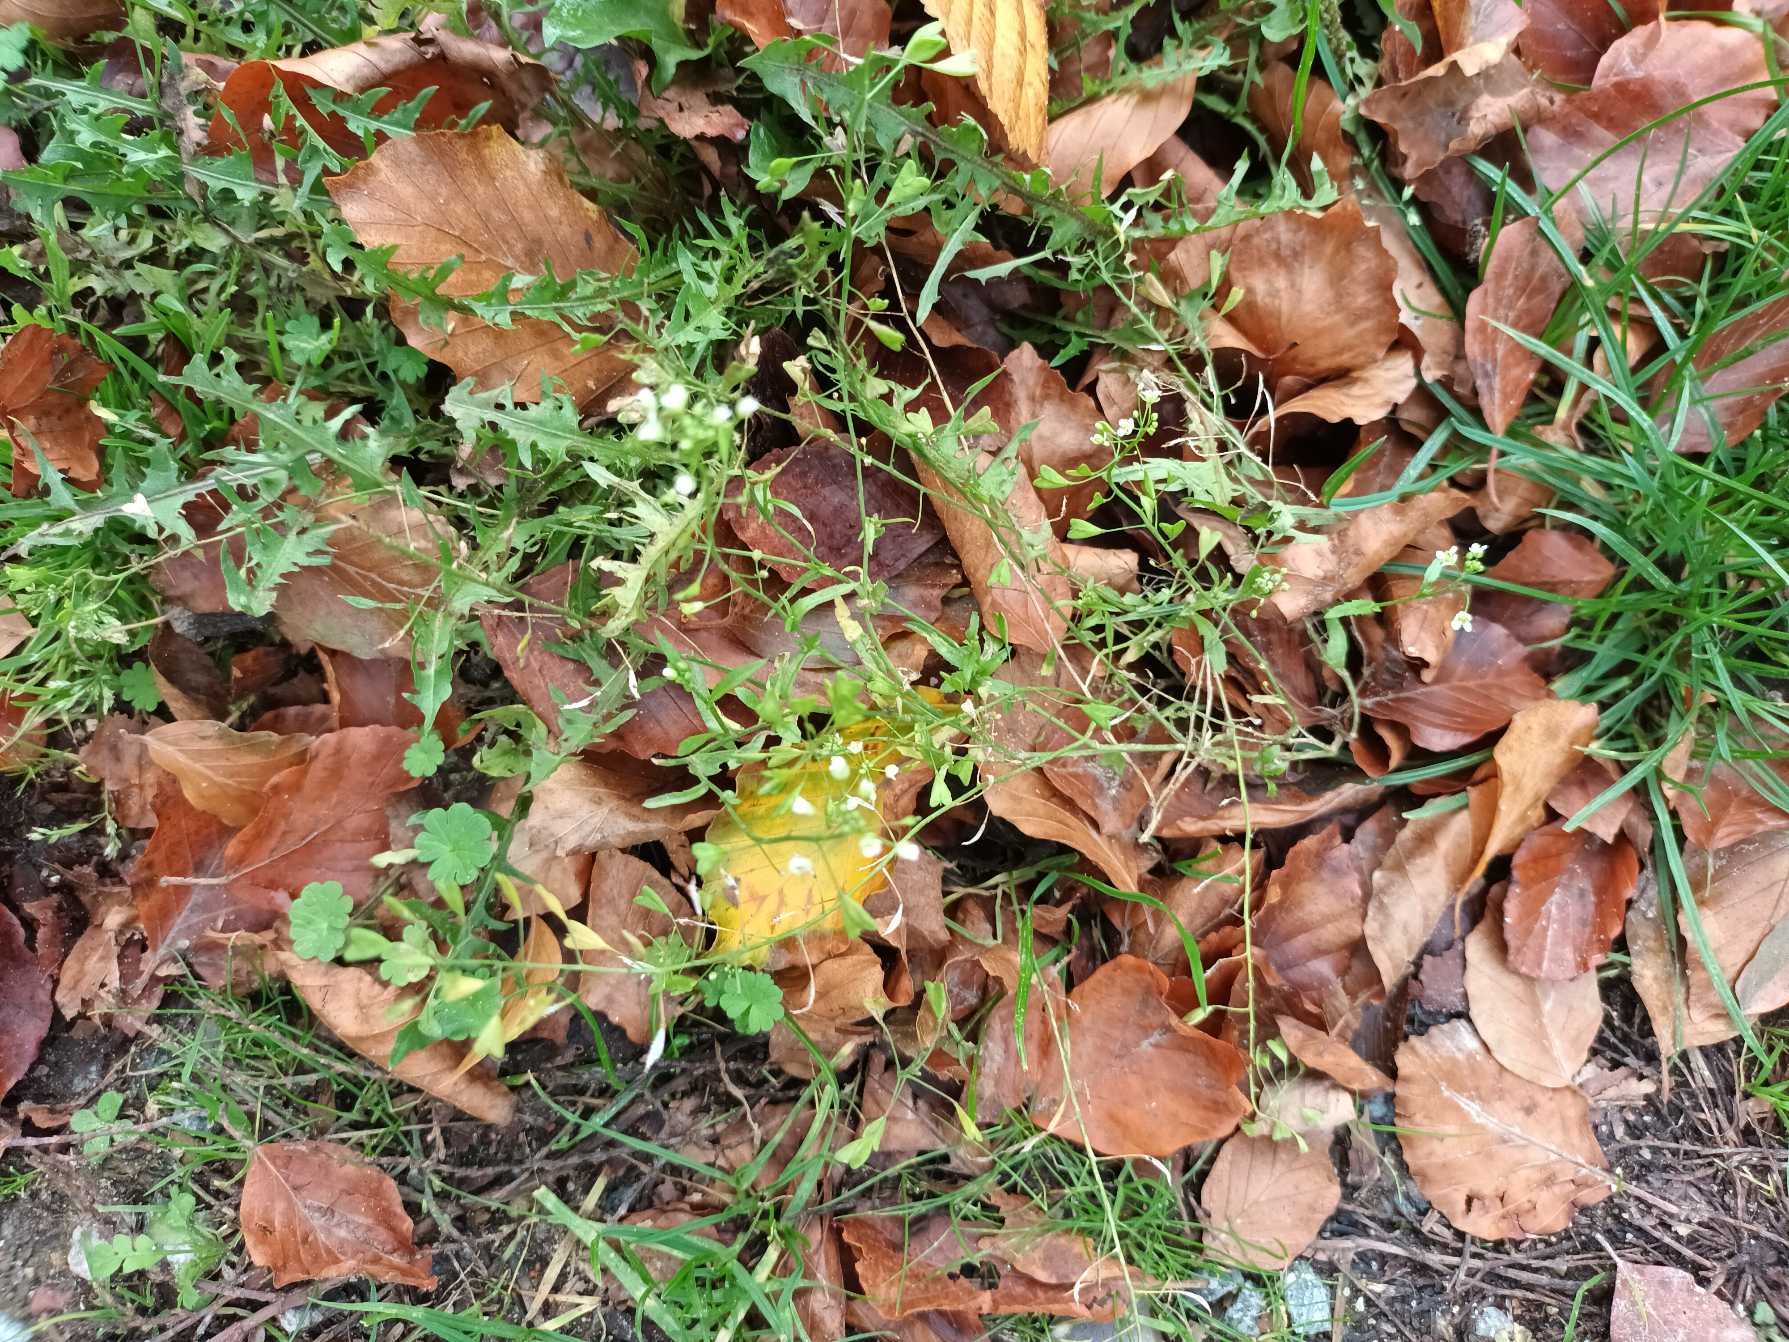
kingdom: Plantae
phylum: Tracheophyta
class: Magnoliopsida
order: Brassicales
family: Brassicaceae
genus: Capsella
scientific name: Capsella bursa-pastoris
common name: Hyrdetaske
